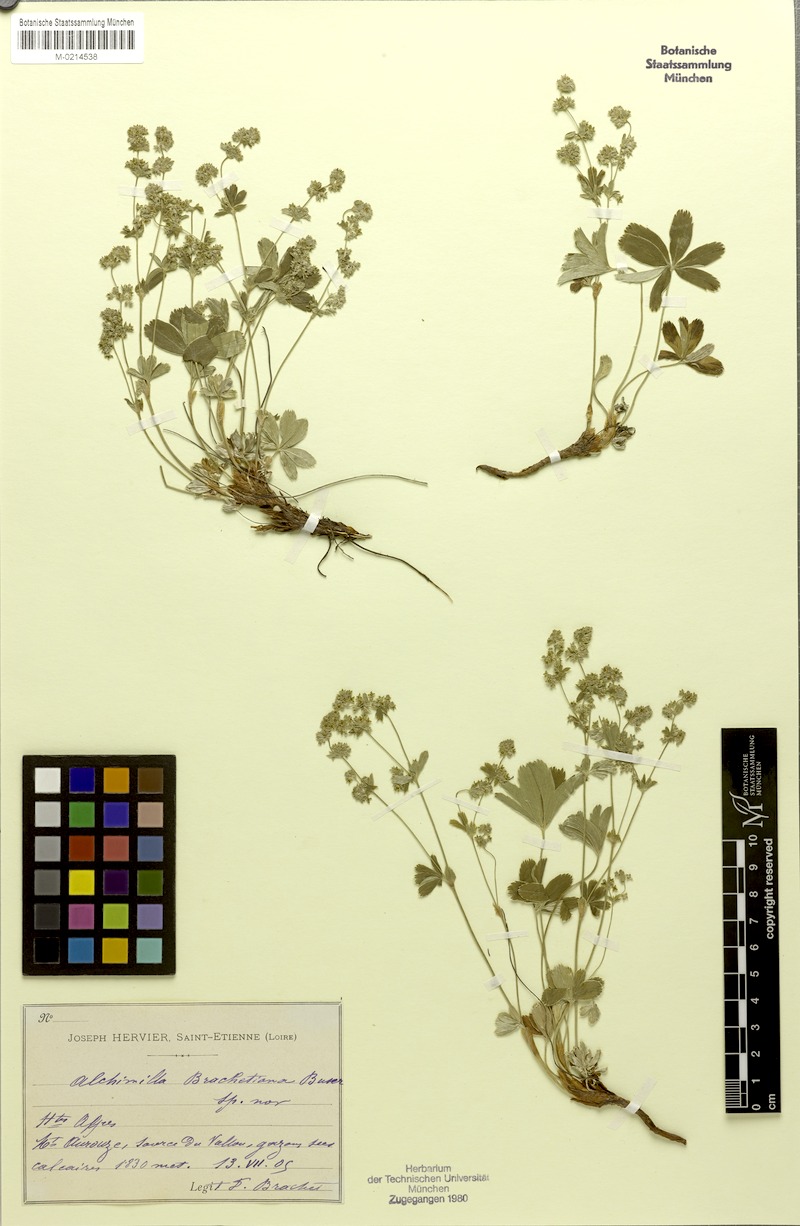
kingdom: Plantae
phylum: Tracheophyta
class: Magnoliopsida
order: Rosales
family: Rosaceae
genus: Alchemilla
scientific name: Alchemilla brachetiana
